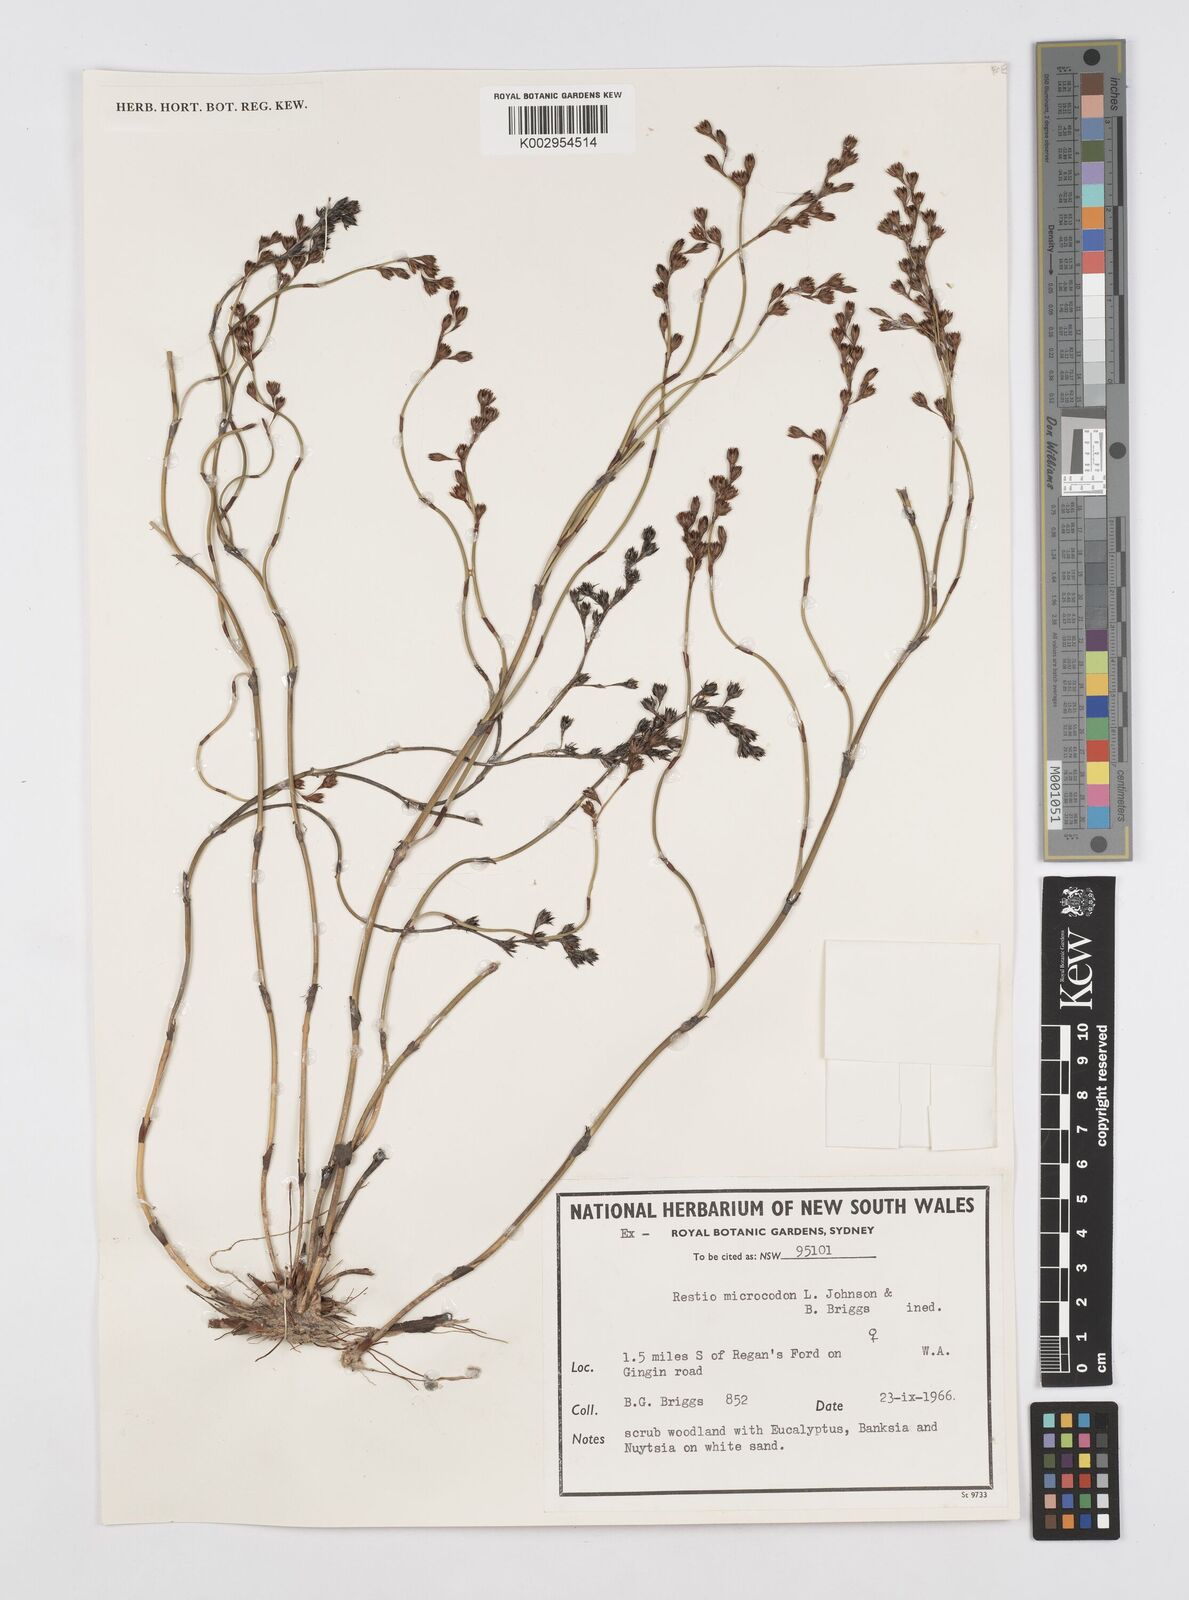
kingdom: Plantae
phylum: Tracheophyta
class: Liliopsida
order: Poales
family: Restionaceae
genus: Chordifex
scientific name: Chordifex microcodon
